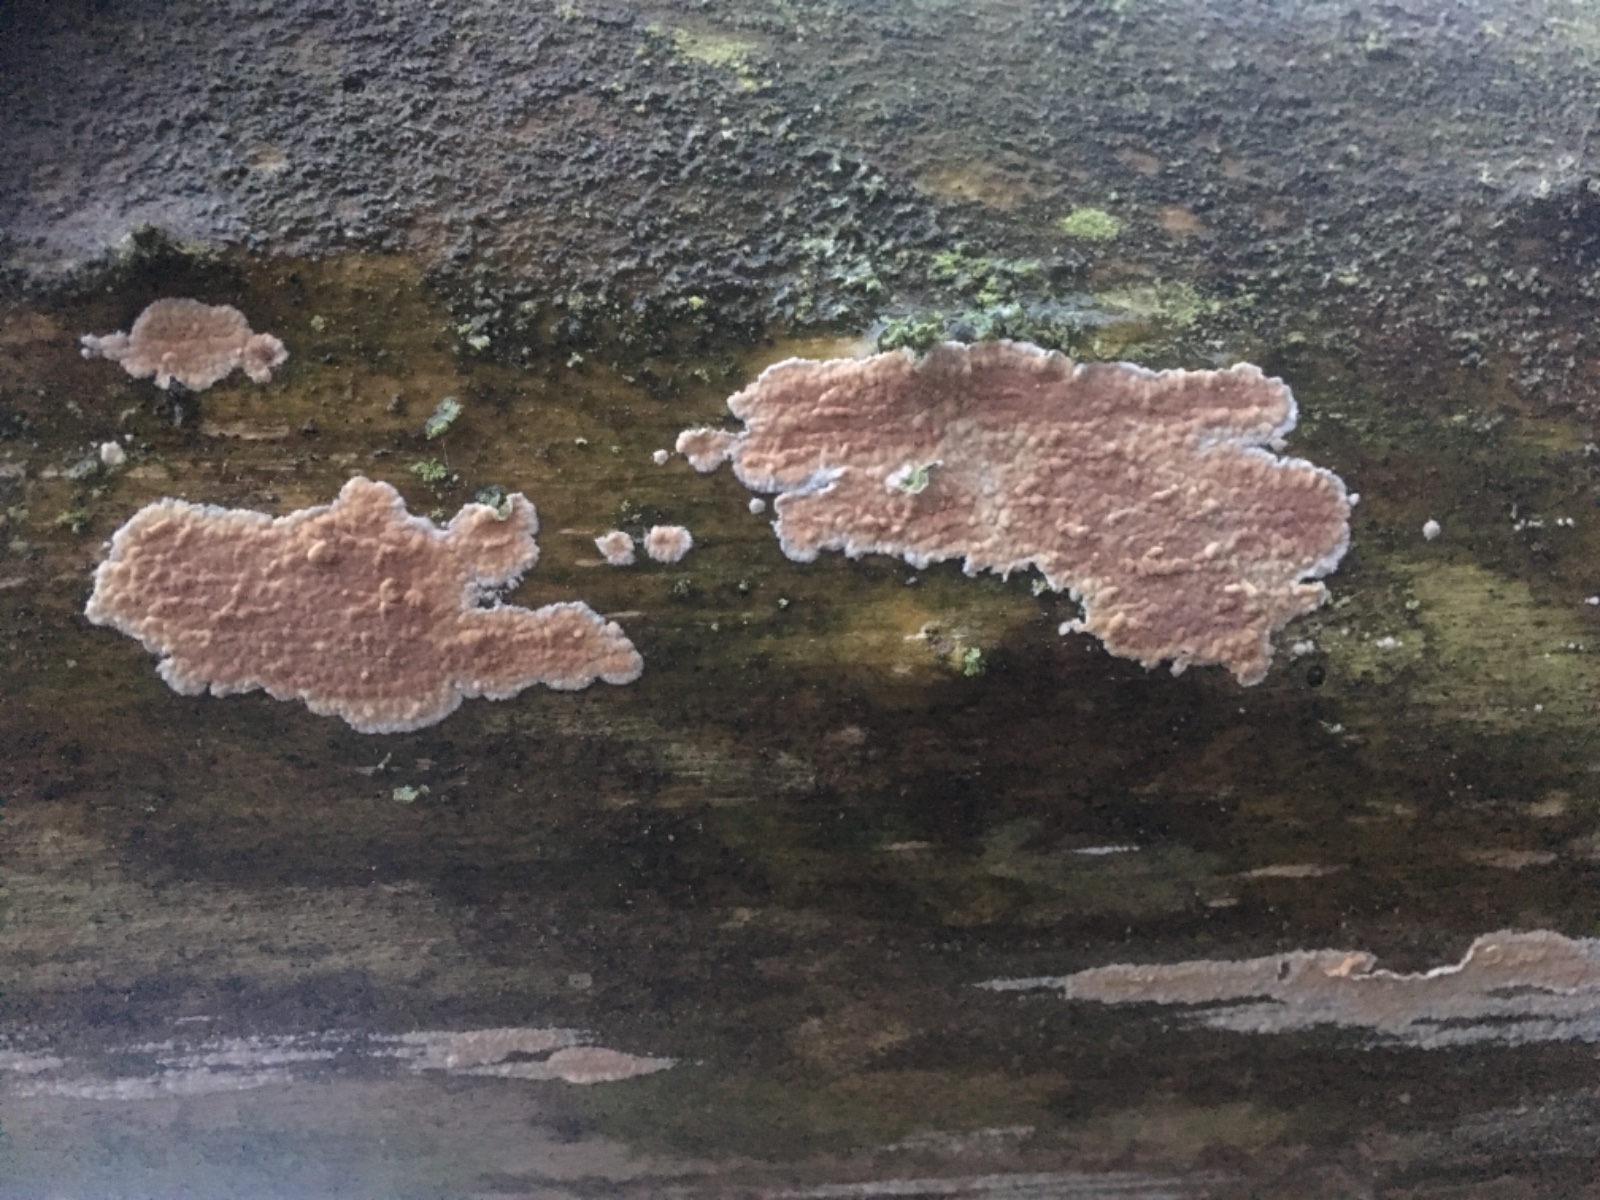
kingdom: Fungi
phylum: Basidiomycota
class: Agaricomycetes
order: Agaricales
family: Physalacriaceae
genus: Cylindrobasidium
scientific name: Cylindrobasidium evolvens
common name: sprækkehinde
